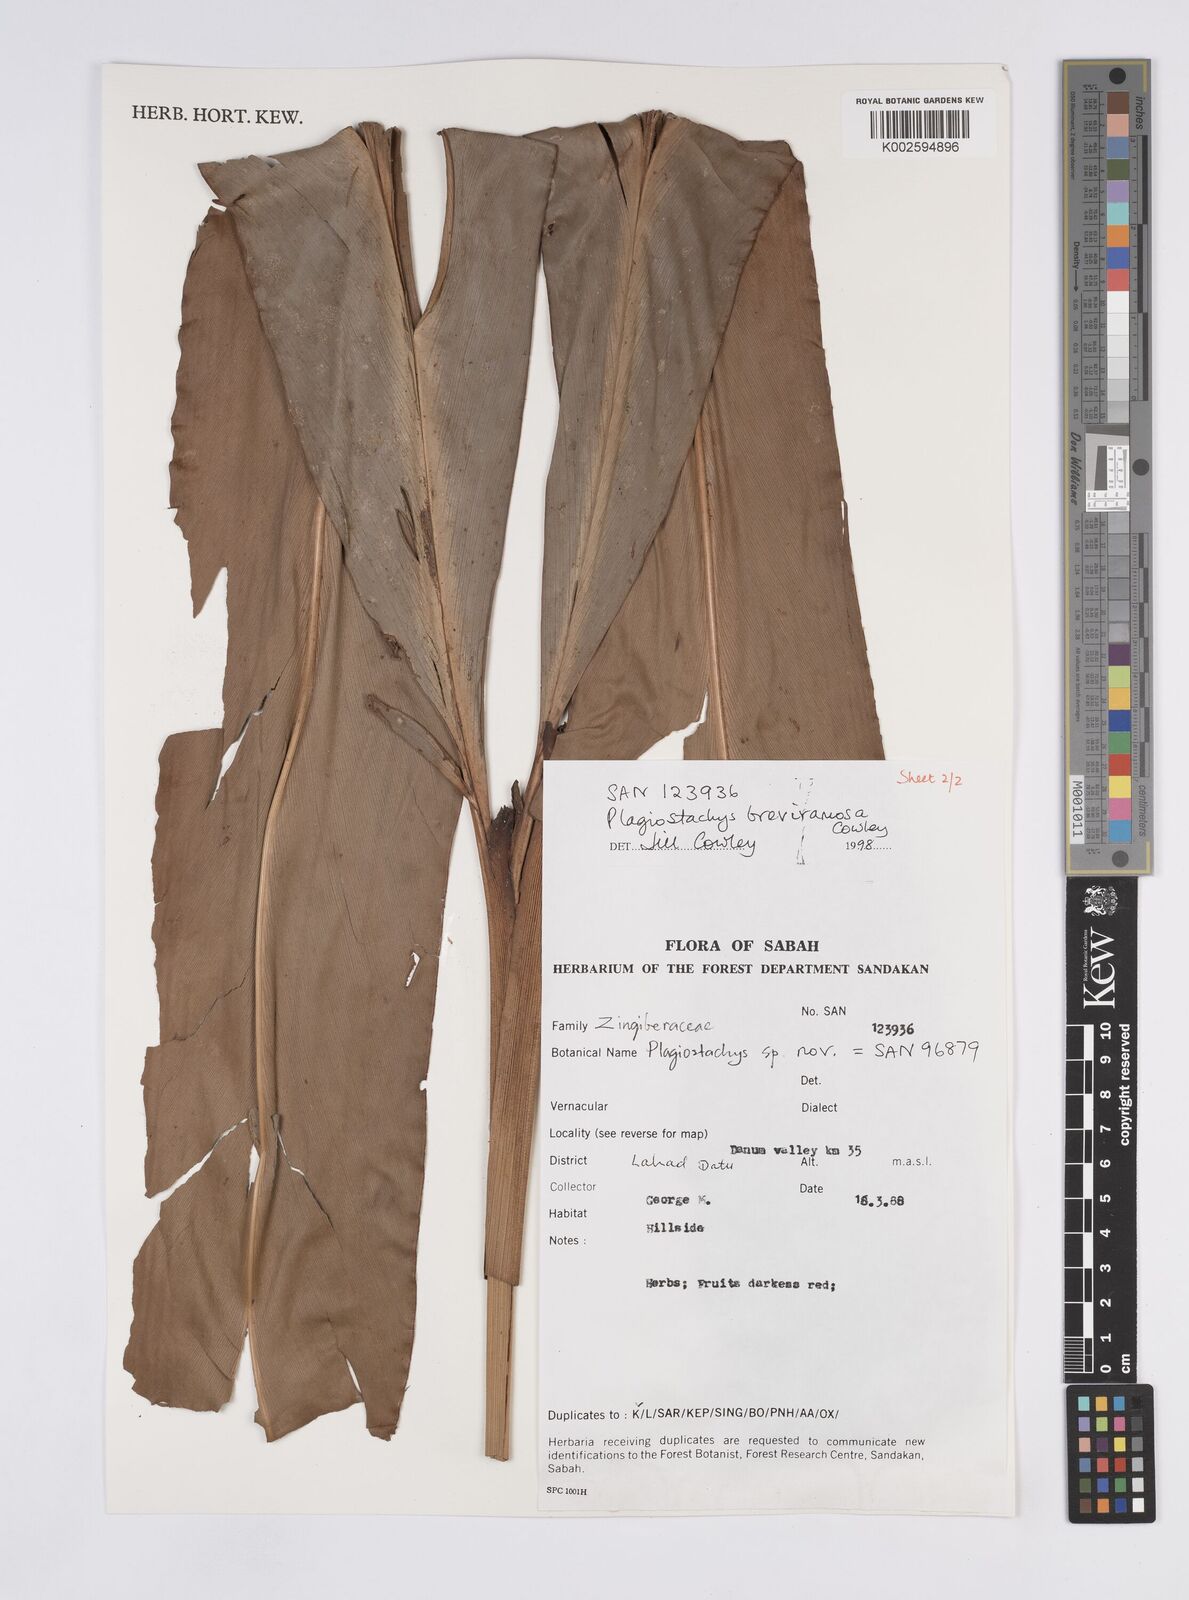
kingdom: Plantae
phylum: Tracheophyta
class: Liliopsida
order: Zingiberales
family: Zingiberaceae
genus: Plagiostachys
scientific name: Plagiostachys breviramosa
